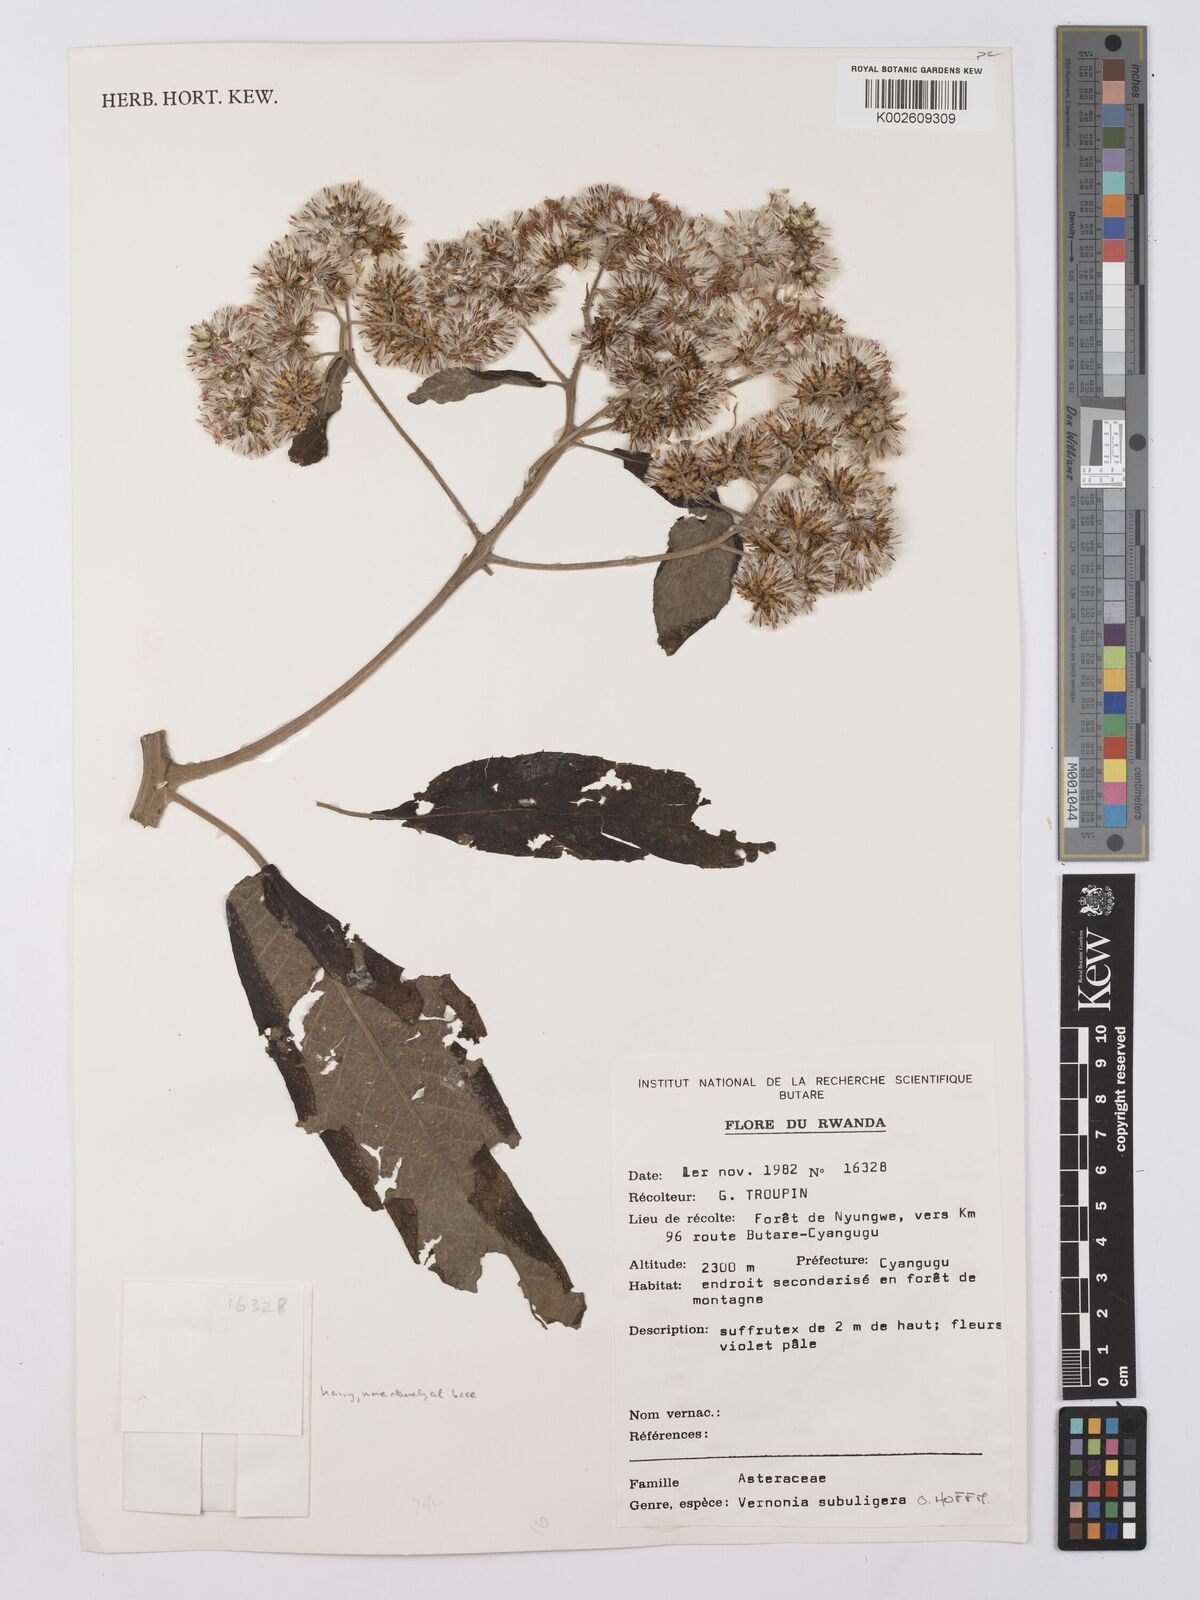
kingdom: Plantae
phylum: Tracheophyta
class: Magnoliopsida
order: Asterales
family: Asteraceae
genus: Gymnanthemum
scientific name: Gymnanthemum myrianthum
